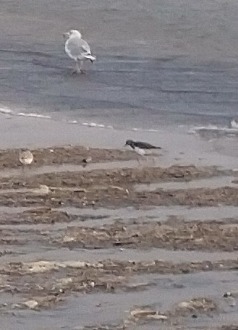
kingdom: Animalia
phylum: Chordata
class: Aves
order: Charadriiformes
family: Scolopacidae
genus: Arenaria
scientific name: Arenaria interpres
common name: Stenvender
